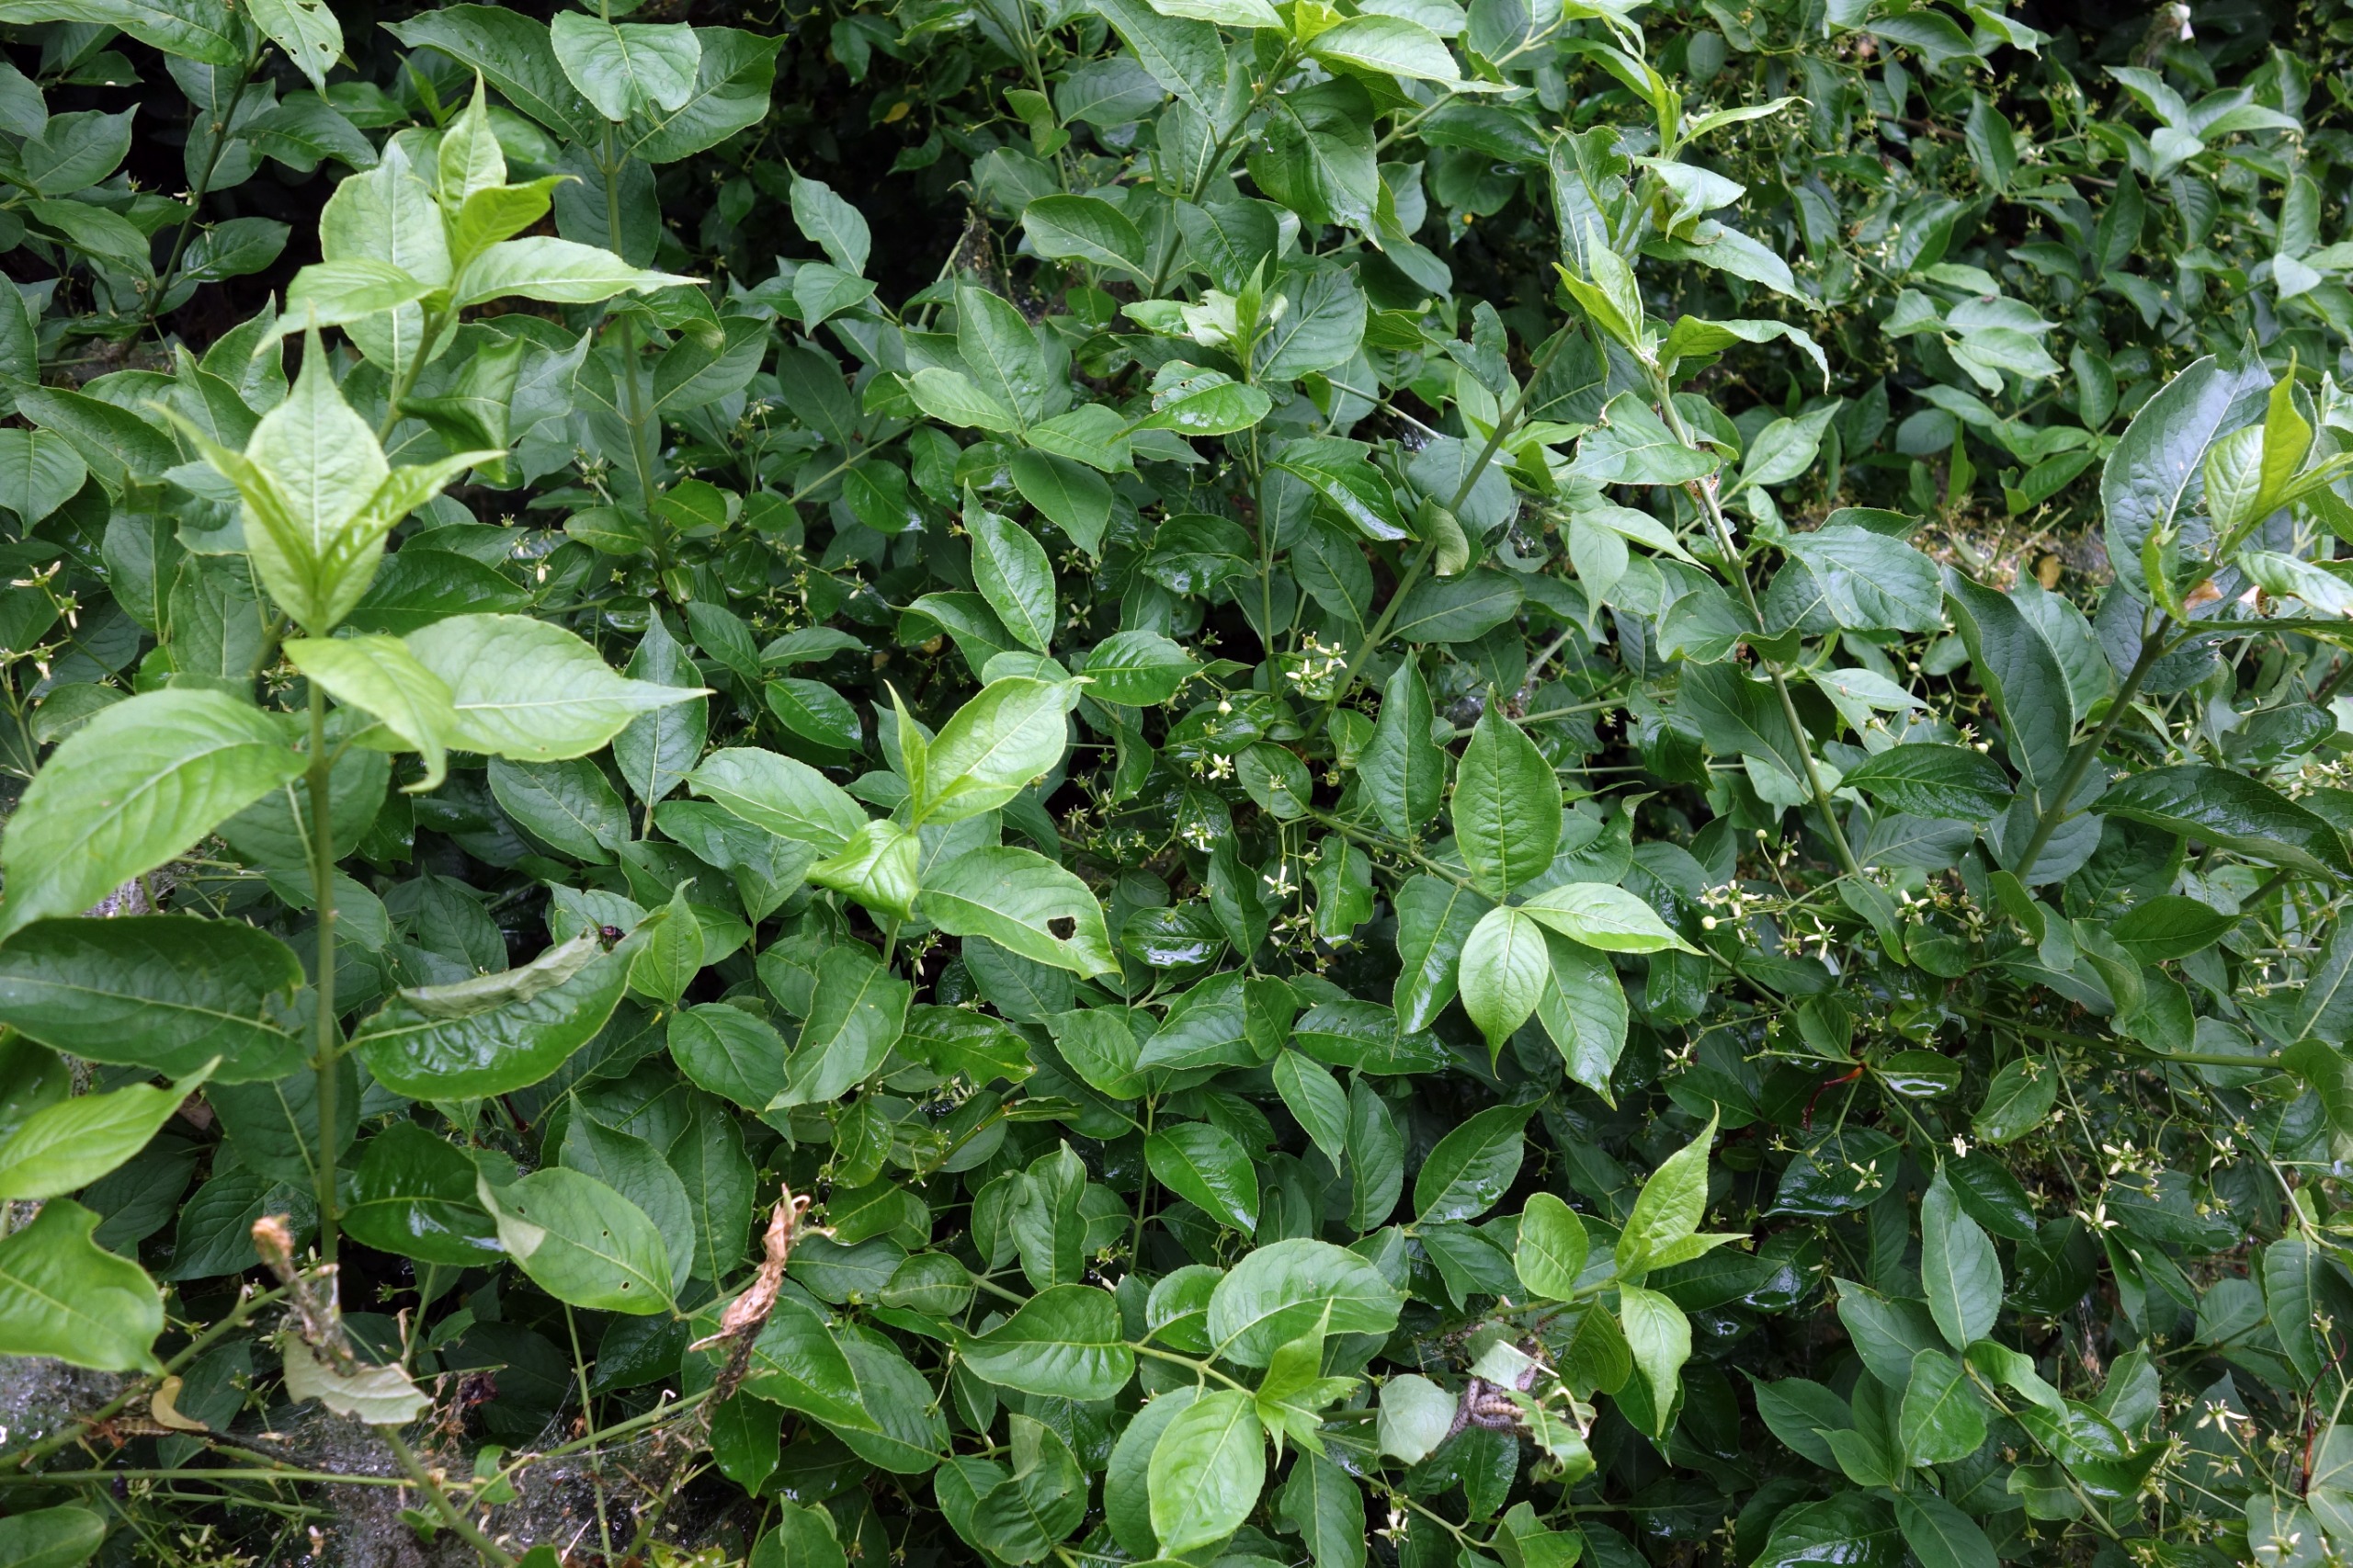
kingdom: Plantae
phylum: Tracheophyta
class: Magnoliopsida
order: Celastrales
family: Celastraceae
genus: Euonymus
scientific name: Euonymus europaeus
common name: Benved
